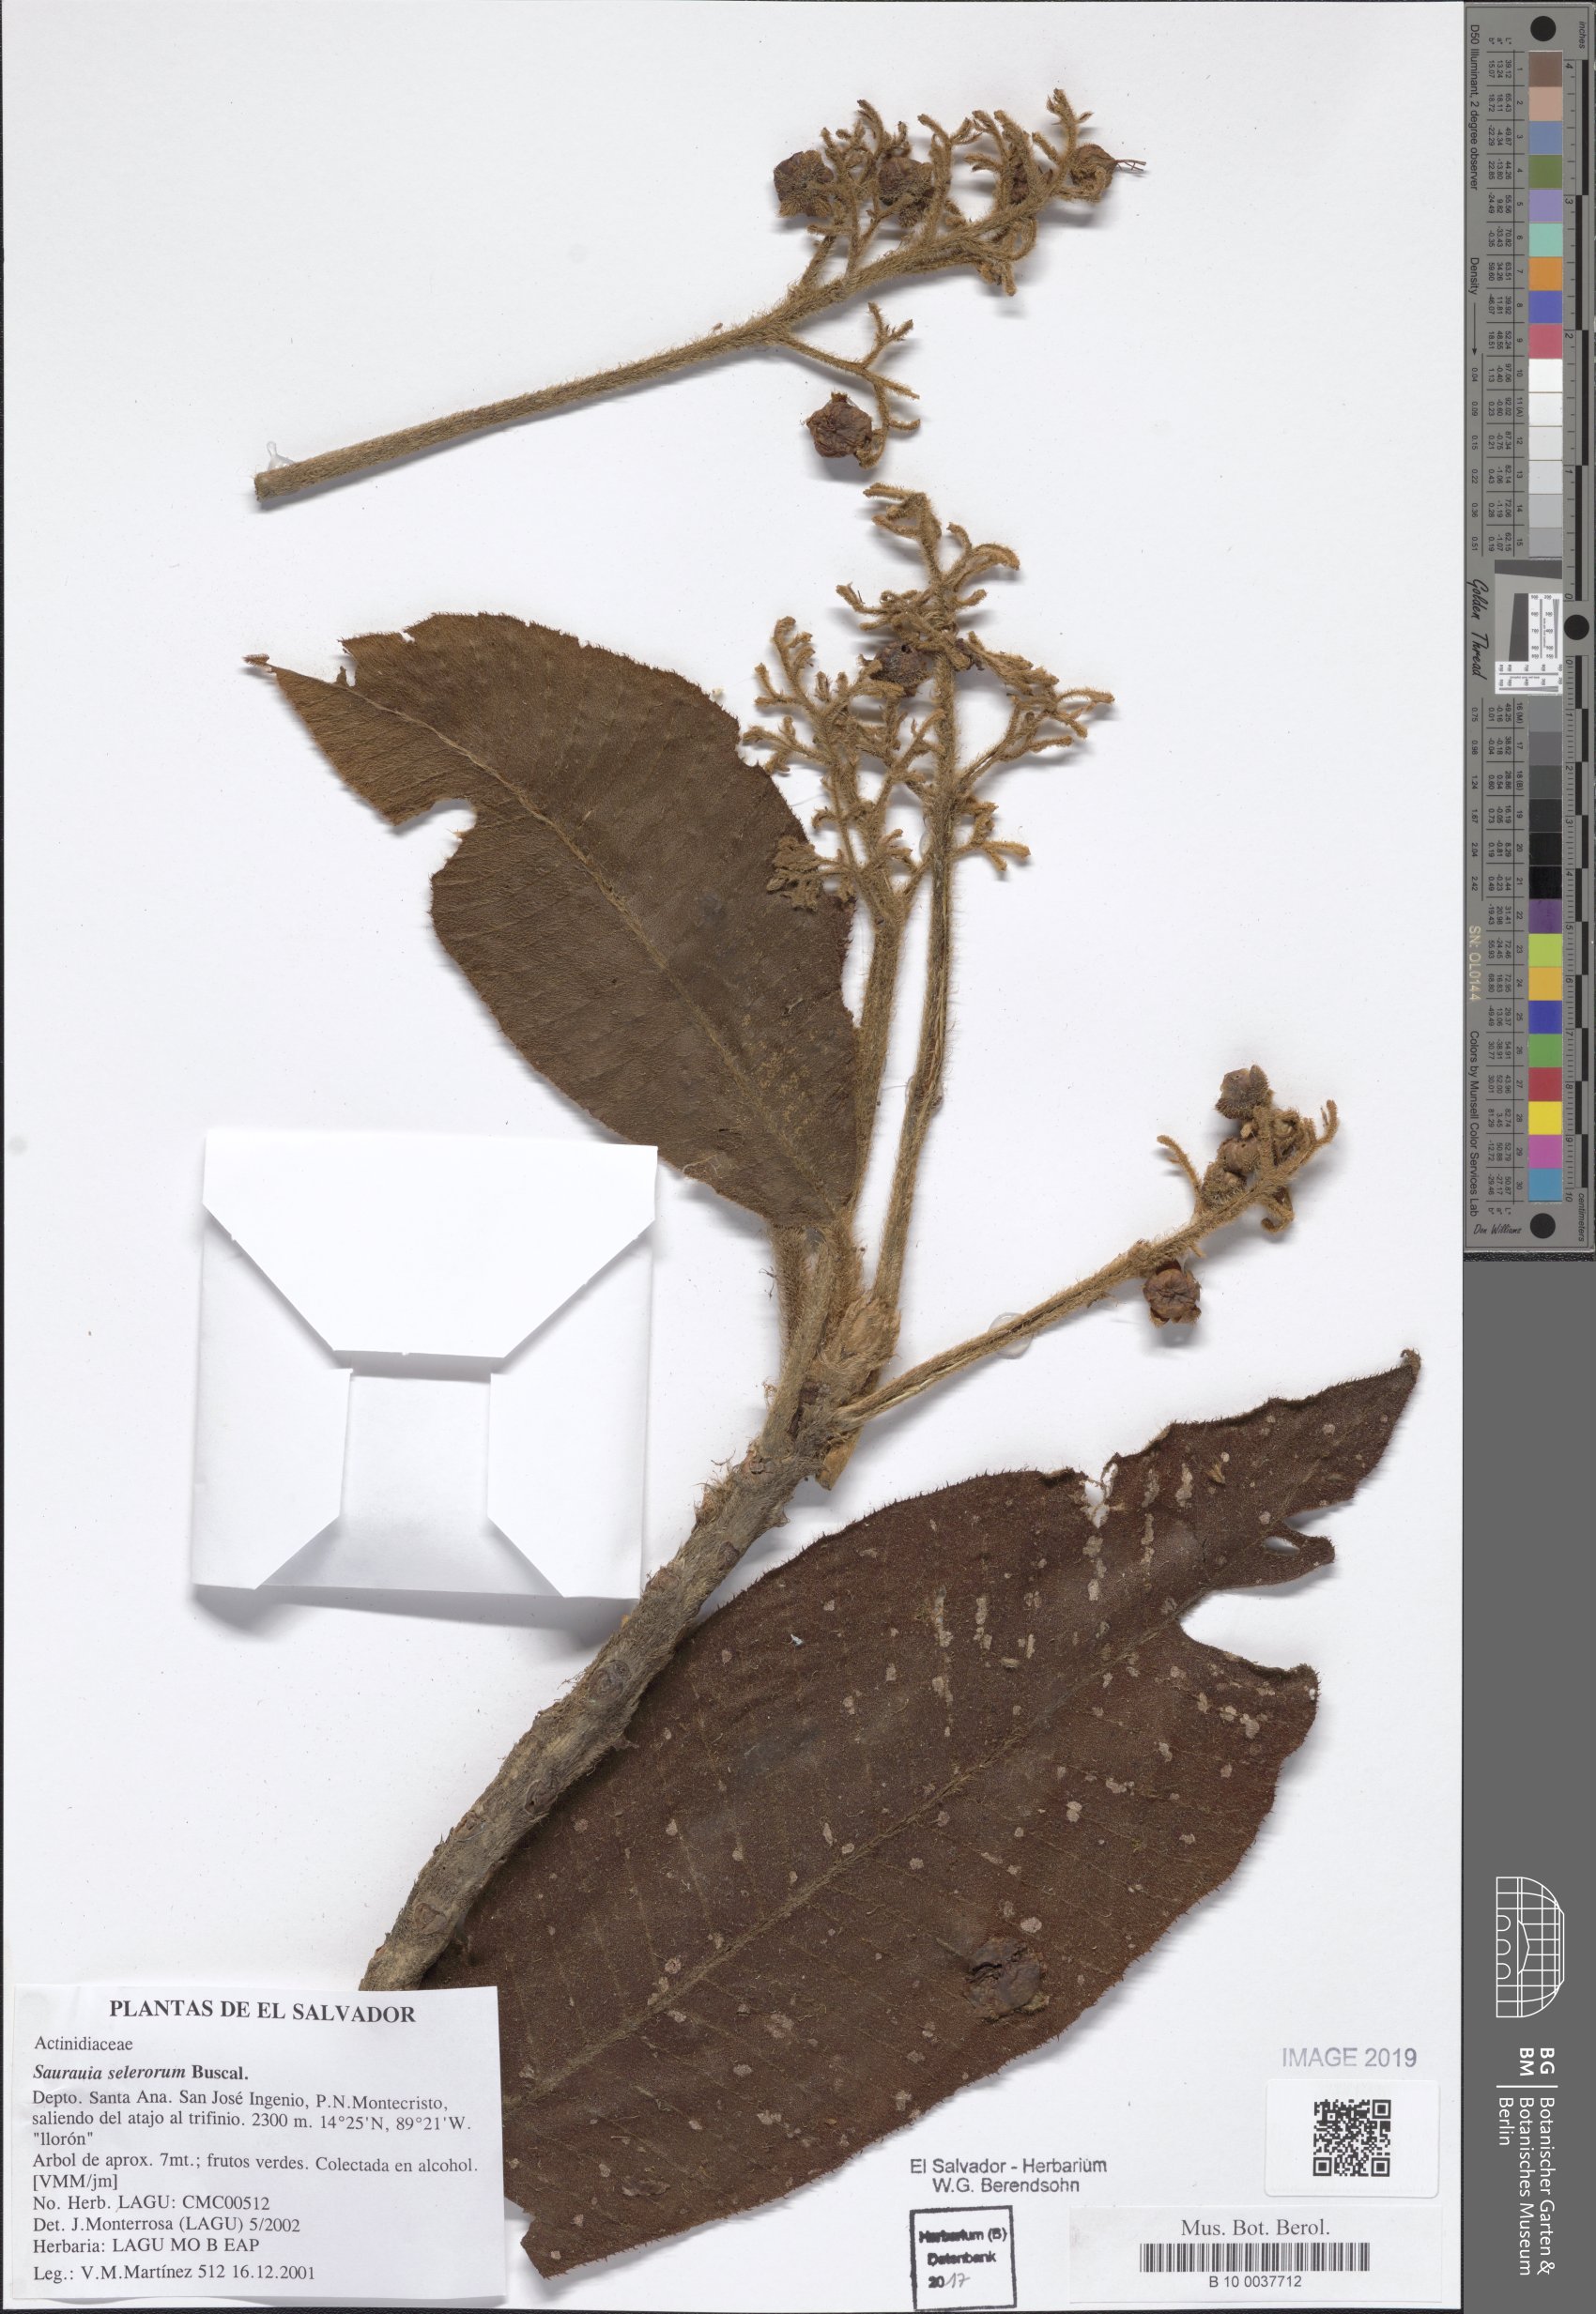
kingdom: Plantae
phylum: Tracheophyta
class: Magnoliopsida
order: Ericales
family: Actinidiaceae
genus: Saurauia
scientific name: Saurauia selerorum
